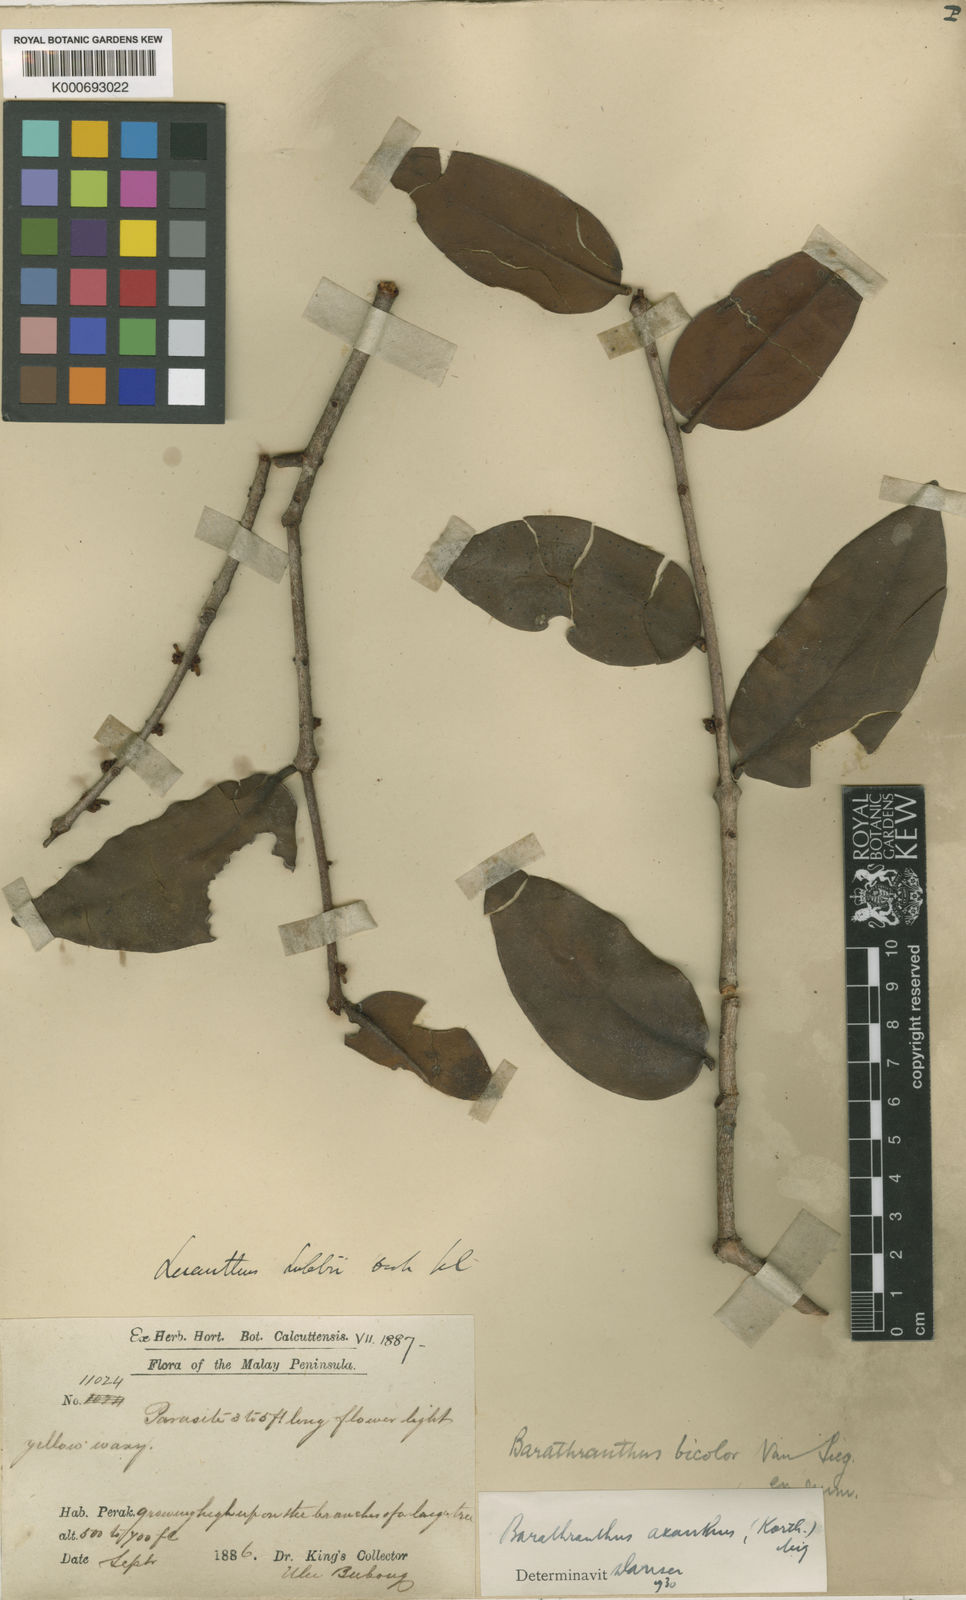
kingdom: Plantae
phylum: Tracheophyta
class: Magnoliopsida
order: Santalales
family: Loranthaceae
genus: Barathranthus
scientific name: Barathranthus axanthus
